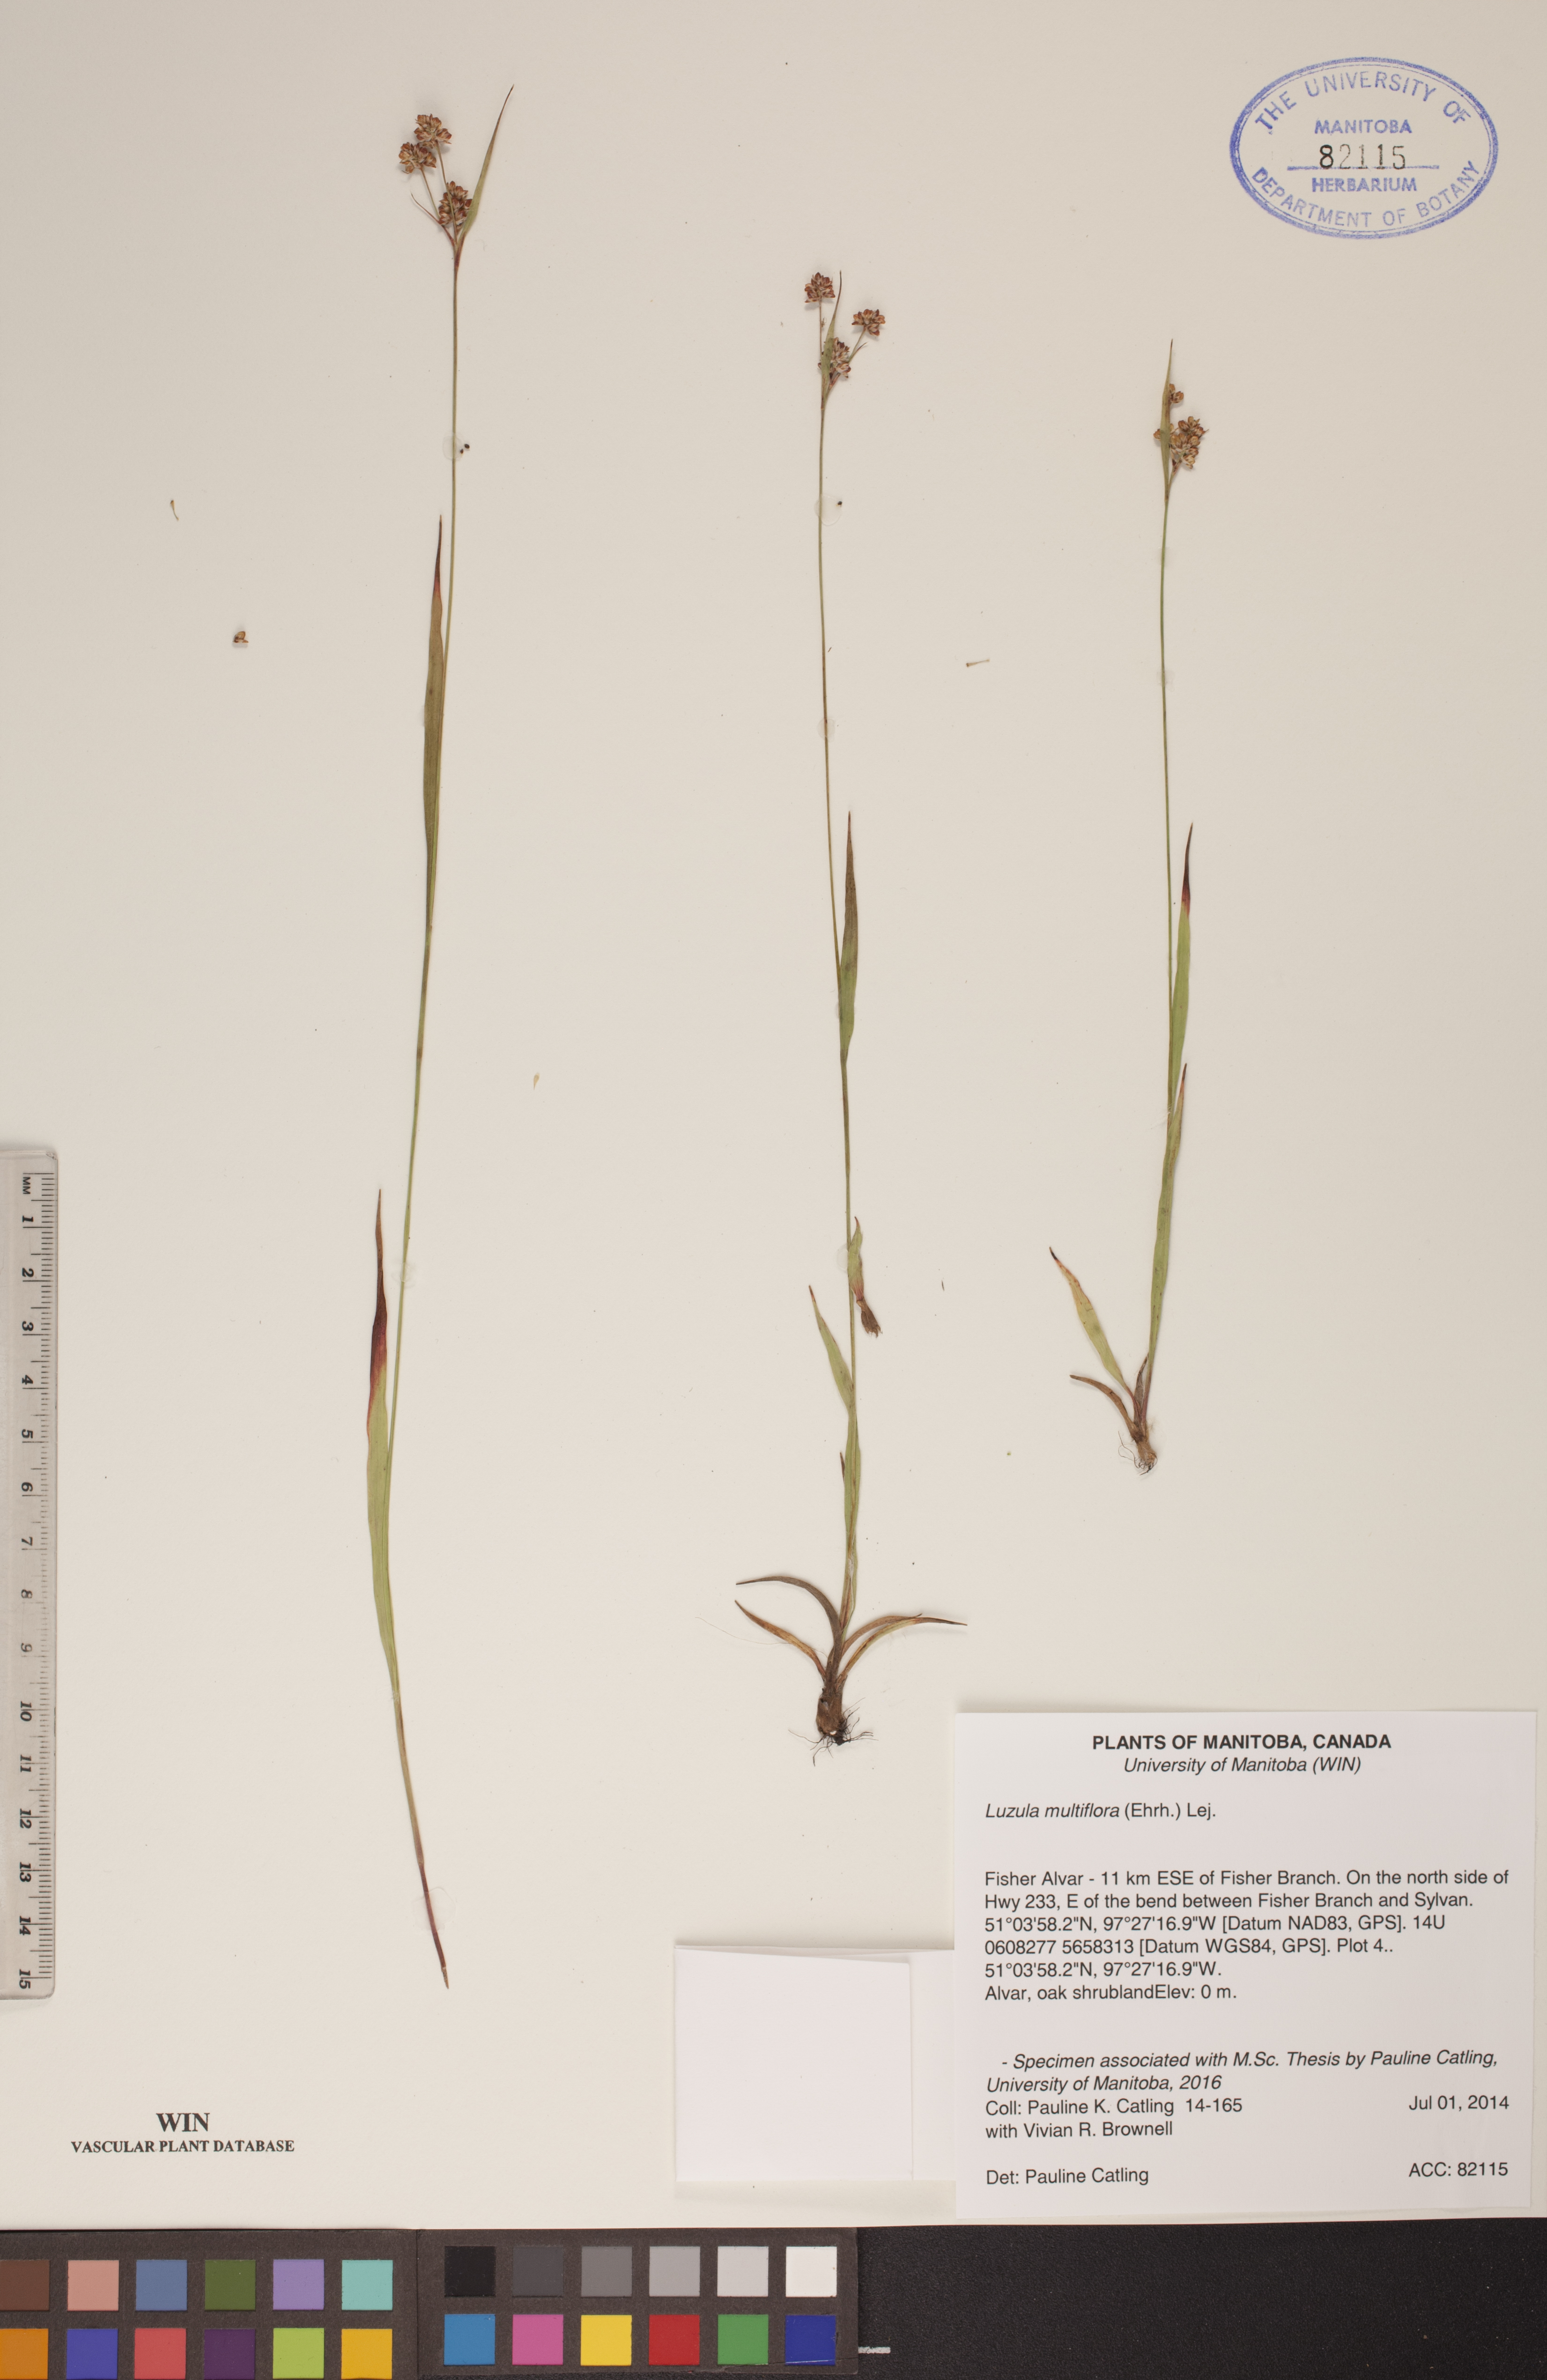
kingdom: Plantae
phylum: Tracheophyta
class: Liliopsida
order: Poales
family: Juncaceae
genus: Luzula
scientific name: Luzula multiflora
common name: Heath wood-rush
